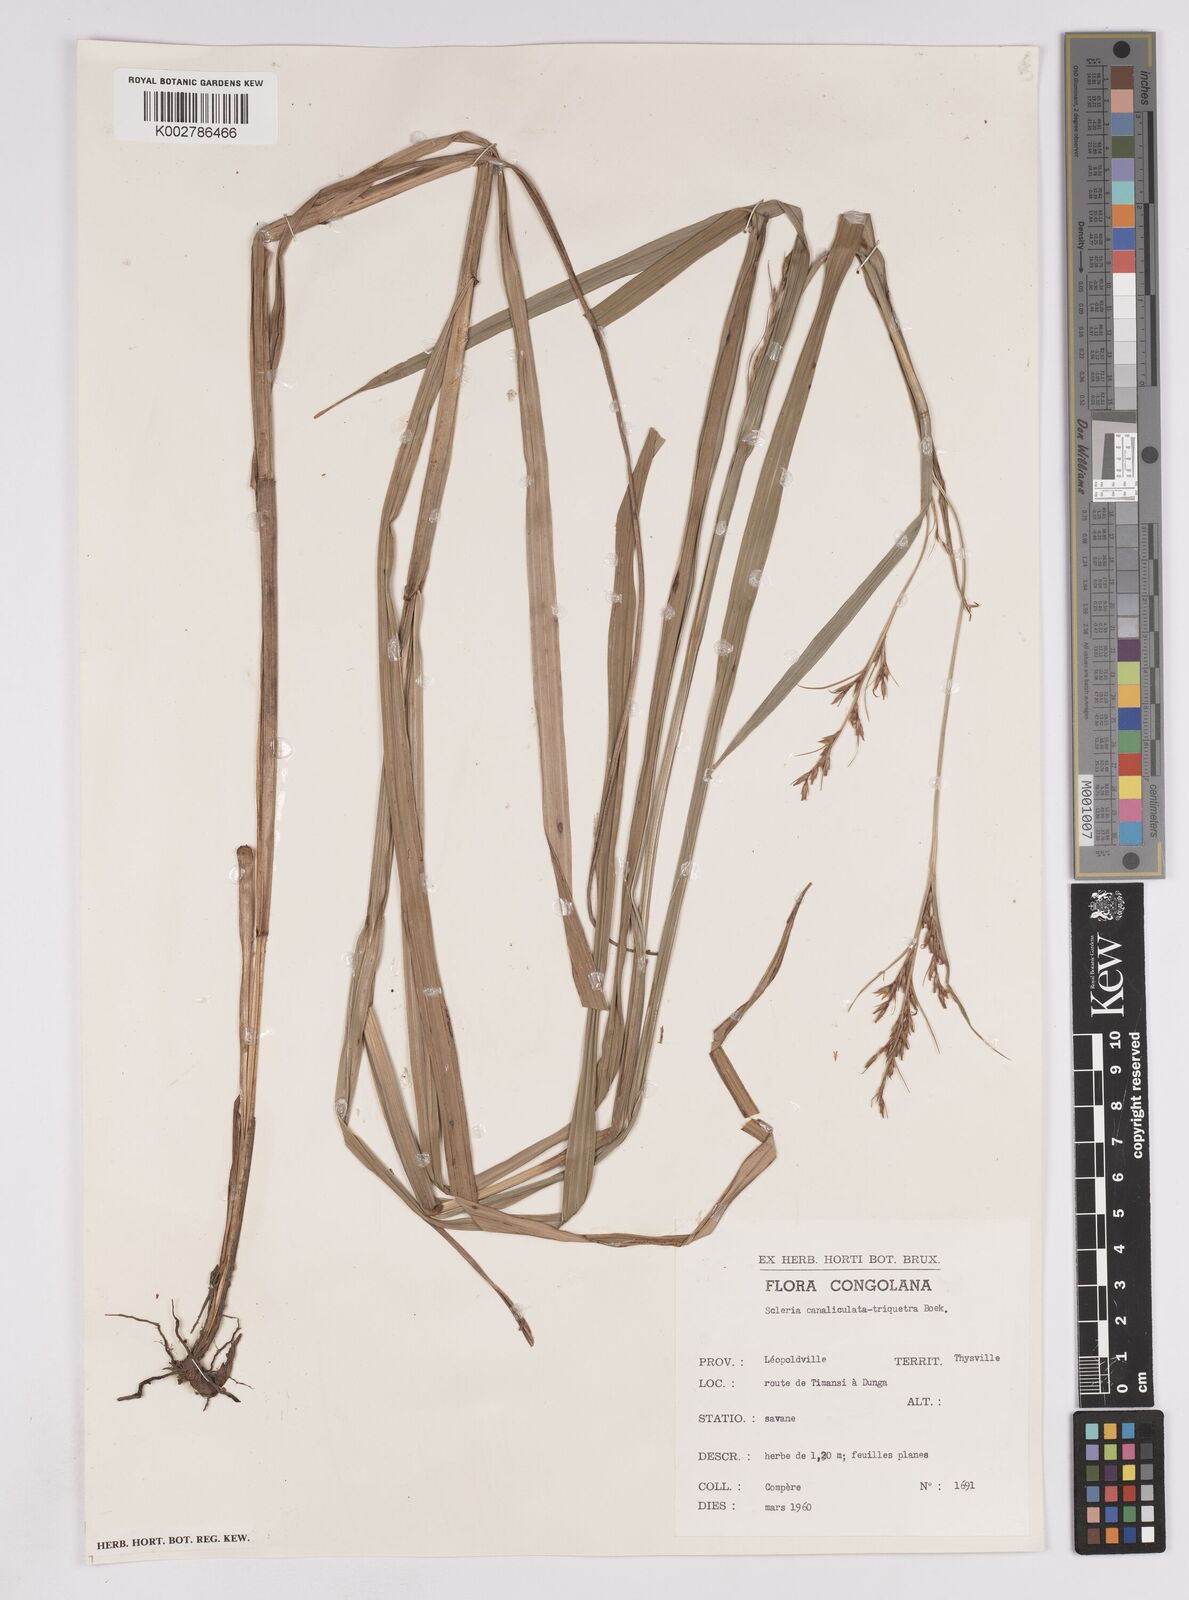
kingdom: Plantae
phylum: Tracheophyta
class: Liliopsida
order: Poales
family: Cyperaceae
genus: Scleria
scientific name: Scleria lagoensis
